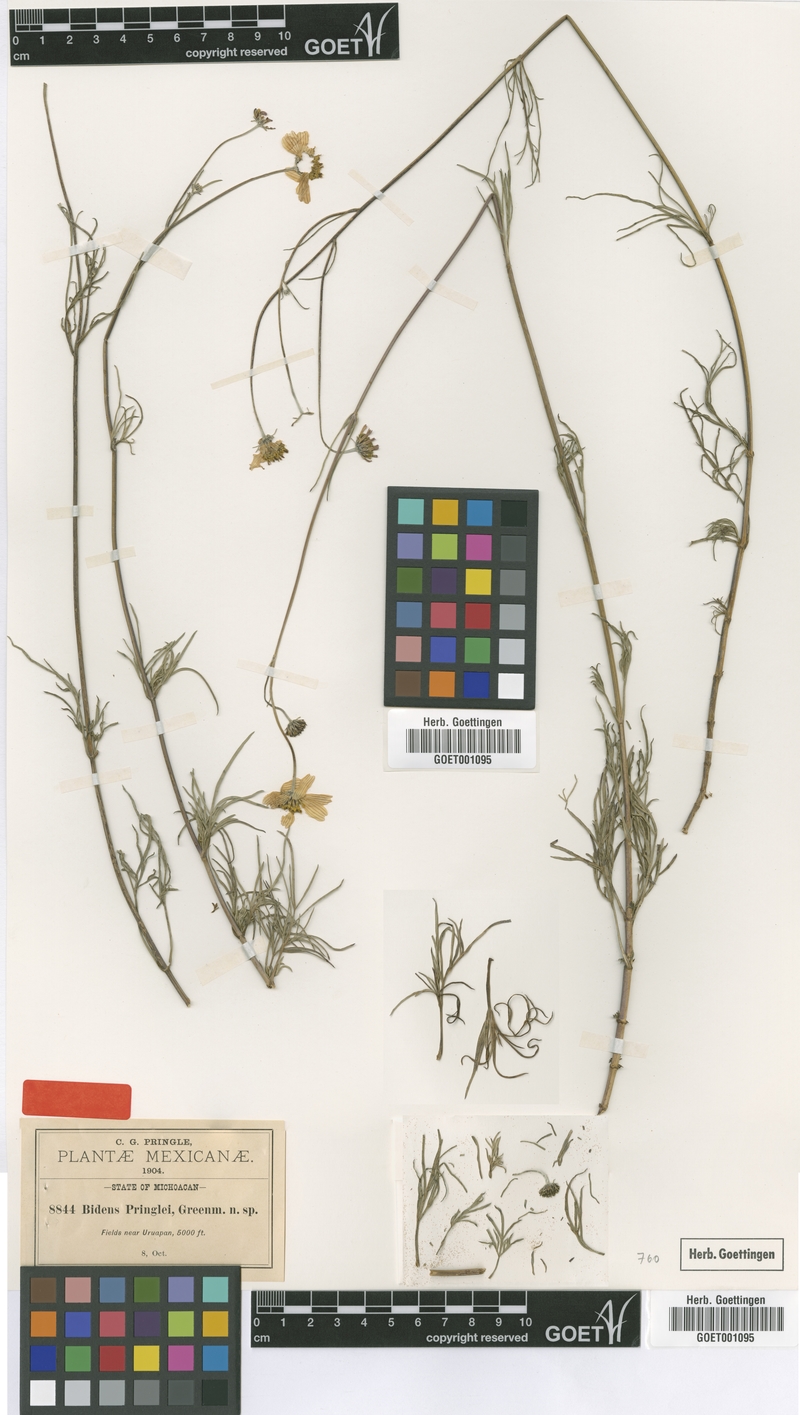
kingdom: Plantae
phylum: Tracheophyta
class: Magnoliopsida
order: Asterales
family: Asteraceae
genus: Bidens
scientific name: Bidens pringlei
